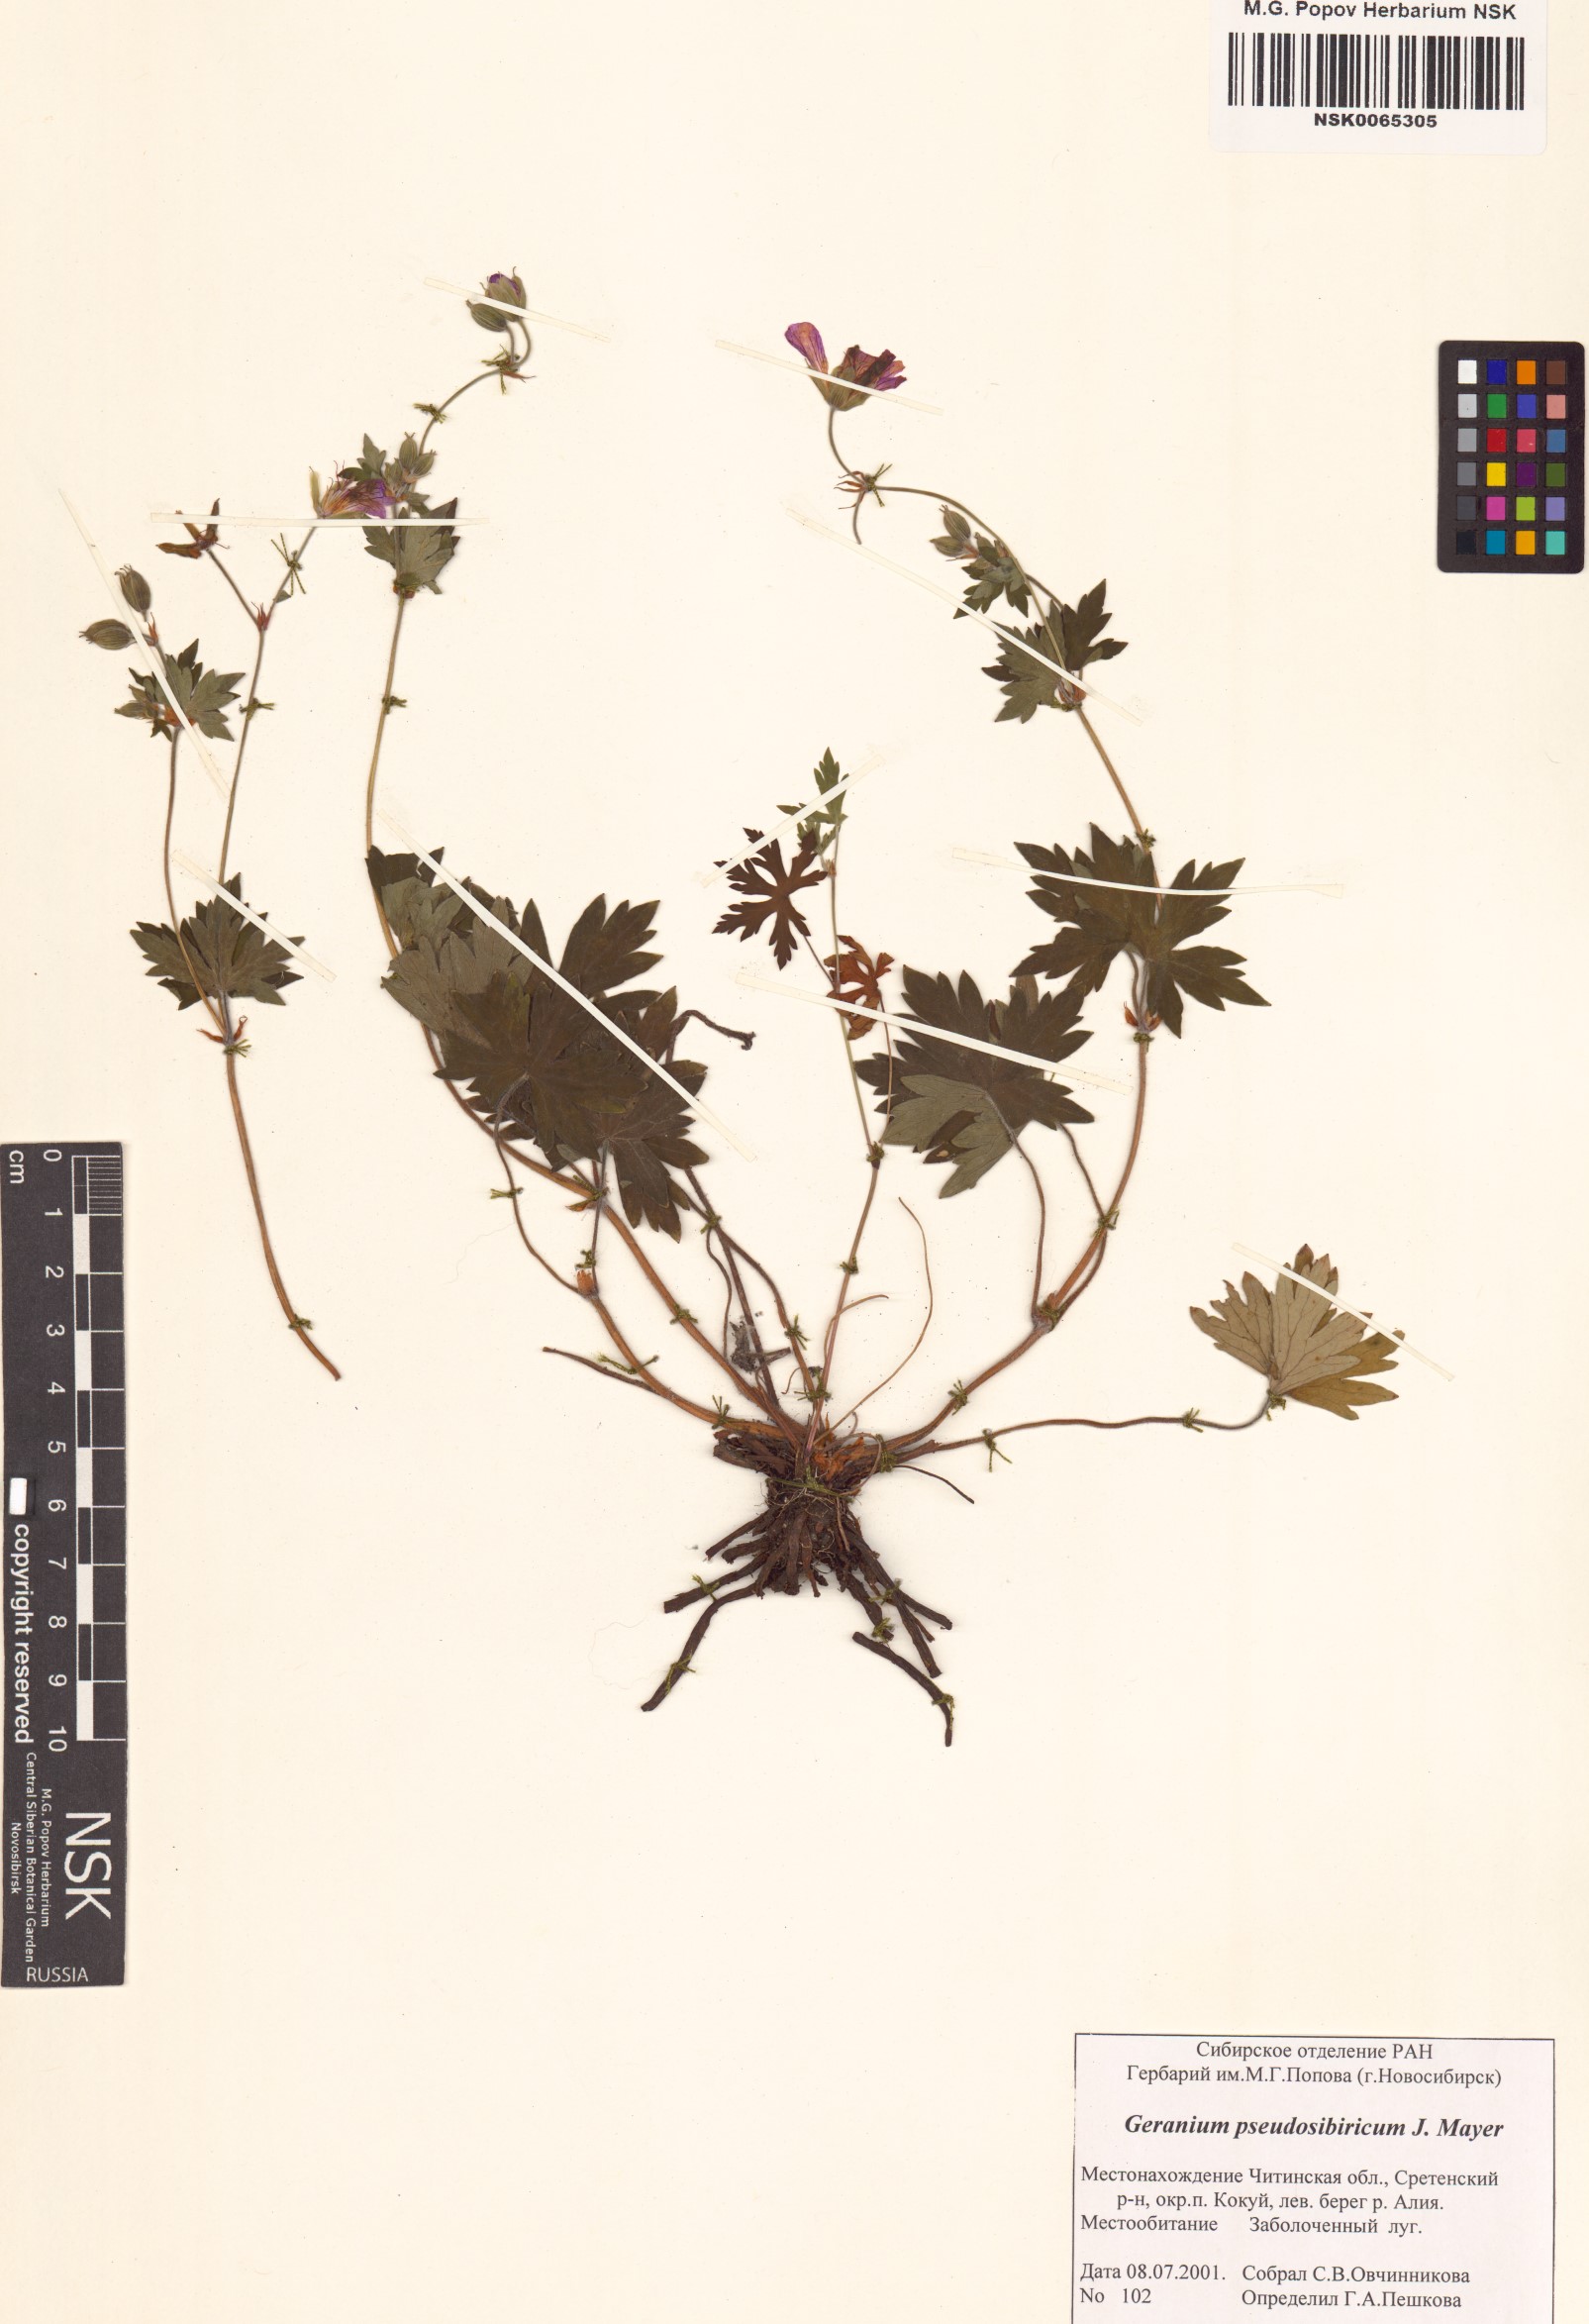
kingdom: Plantae
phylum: Tracheophyta
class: Magnoliopsida
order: Geraniales
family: Geraniaceae
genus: Geranium
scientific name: Geranium pseudosibiricum
